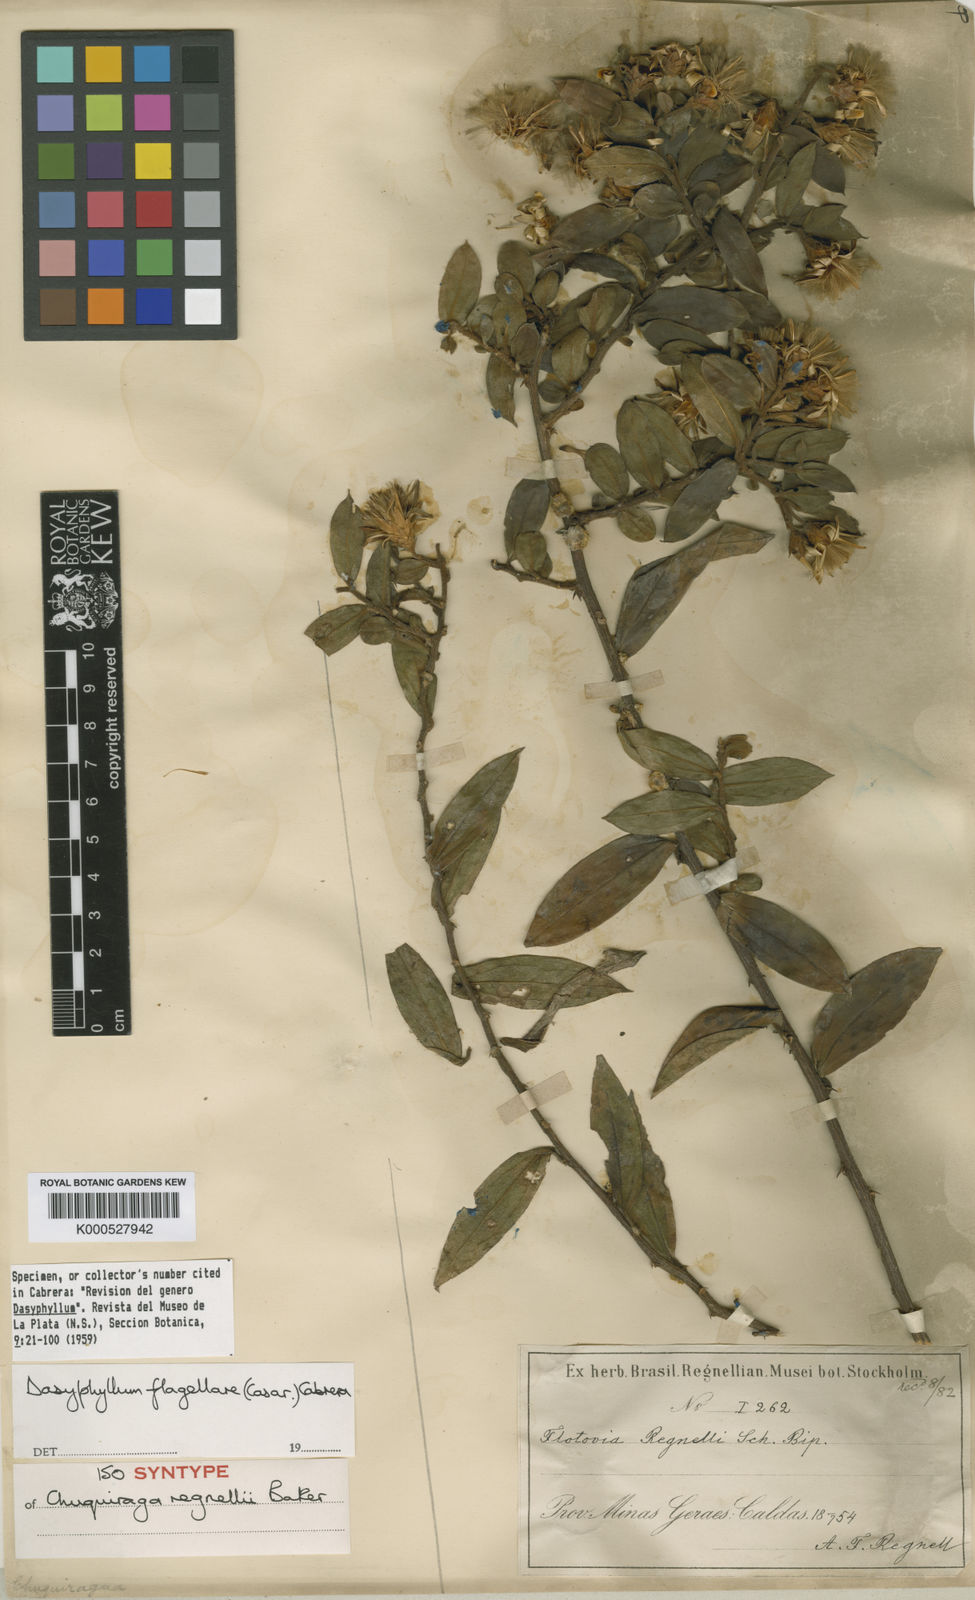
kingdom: Plantae
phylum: Tracheophyta
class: Magnoliopsida
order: Asterales
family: Asteraceae
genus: Dasyphyllum
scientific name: Dasyphyllum flagellare
